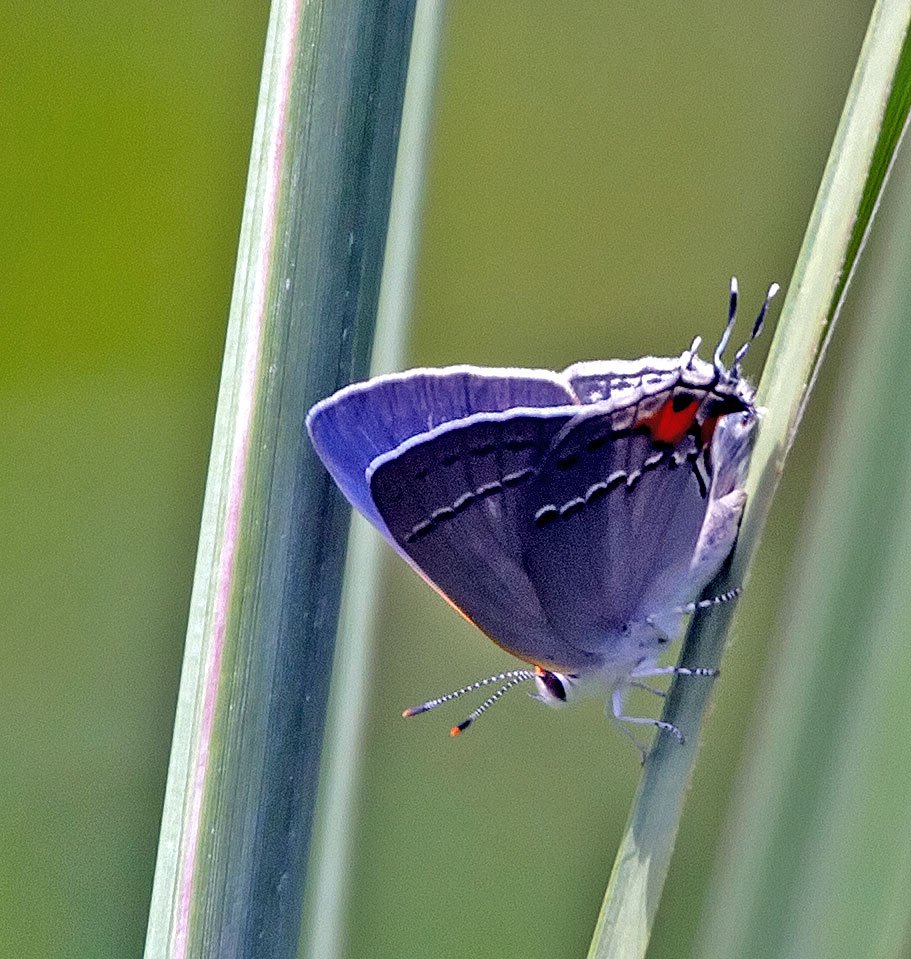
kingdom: Animalia
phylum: Arthropoda
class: Insecta
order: Lepidoptera
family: Lycaenidae
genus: Strymon
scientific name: Strymon melinus
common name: Gray Hairstreak
